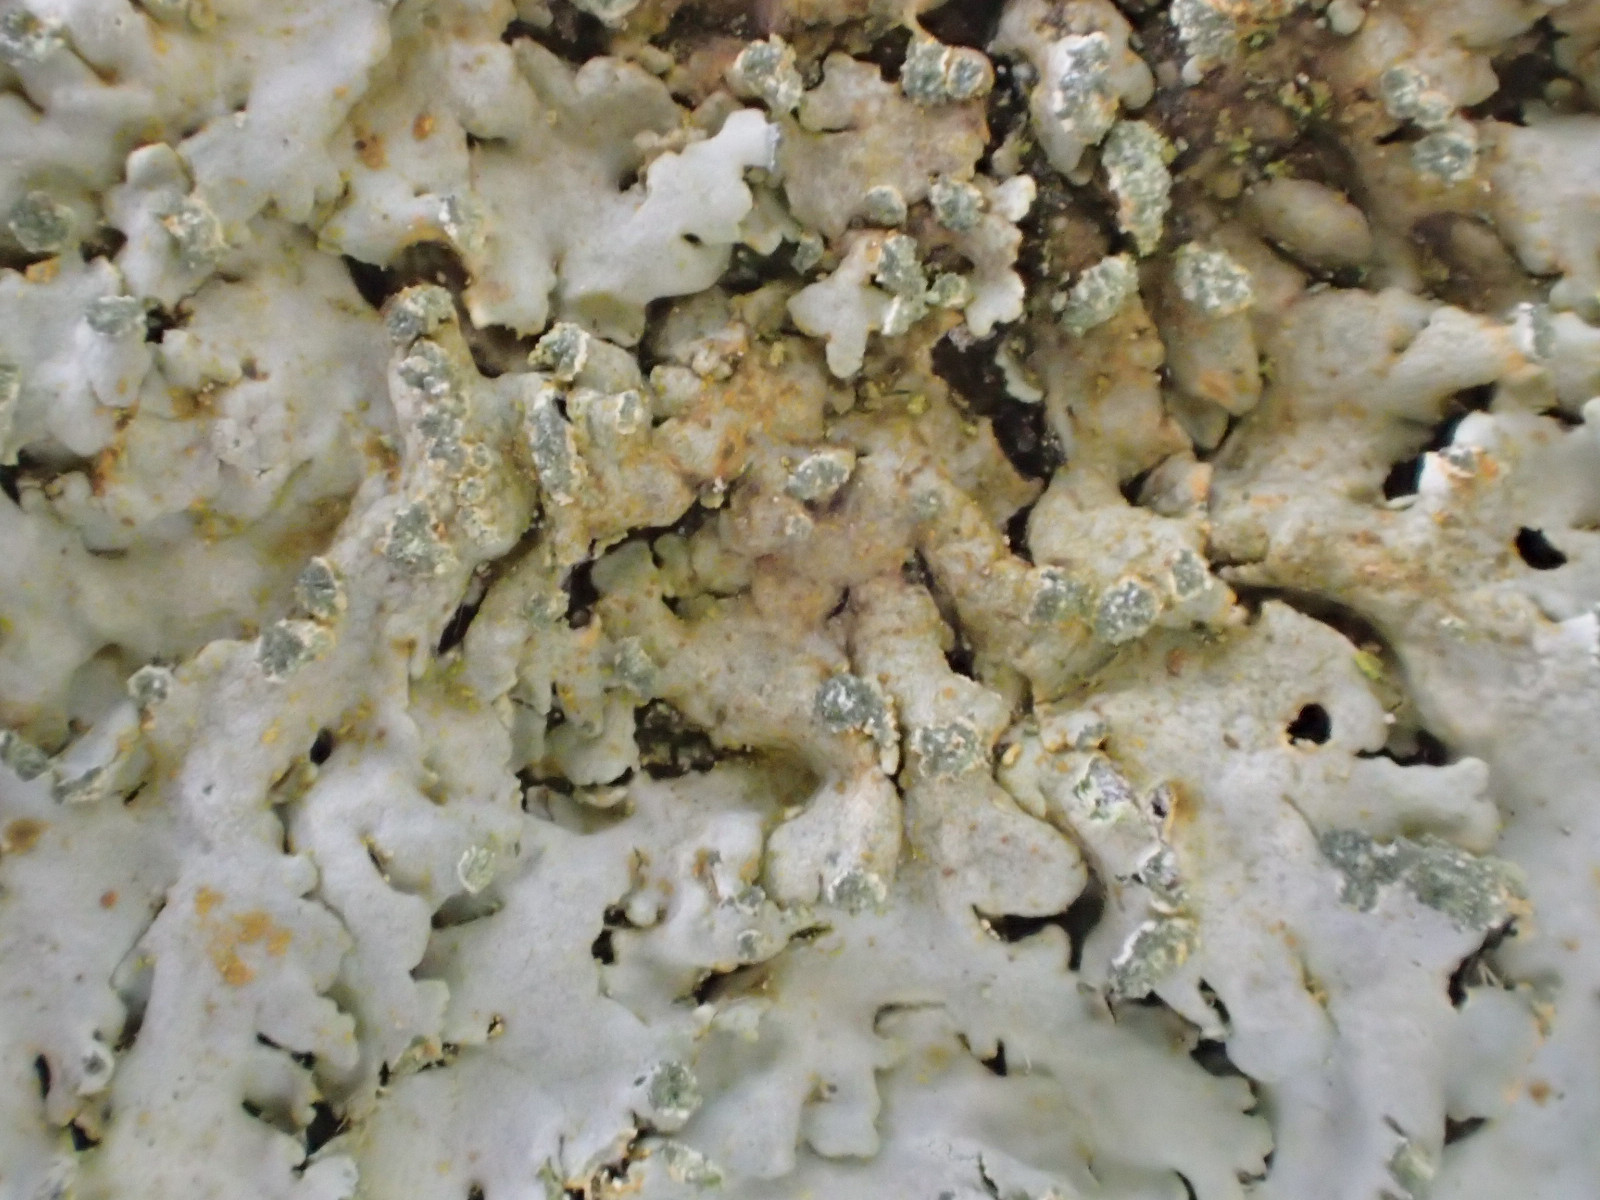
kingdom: Fungi
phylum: Ascomycota
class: Lecanoromycetes
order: Caliciales
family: Physciaceae
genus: Phaeophyscia
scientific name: Phaeophyscia orbicularis
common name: grågrøn rosetlav
